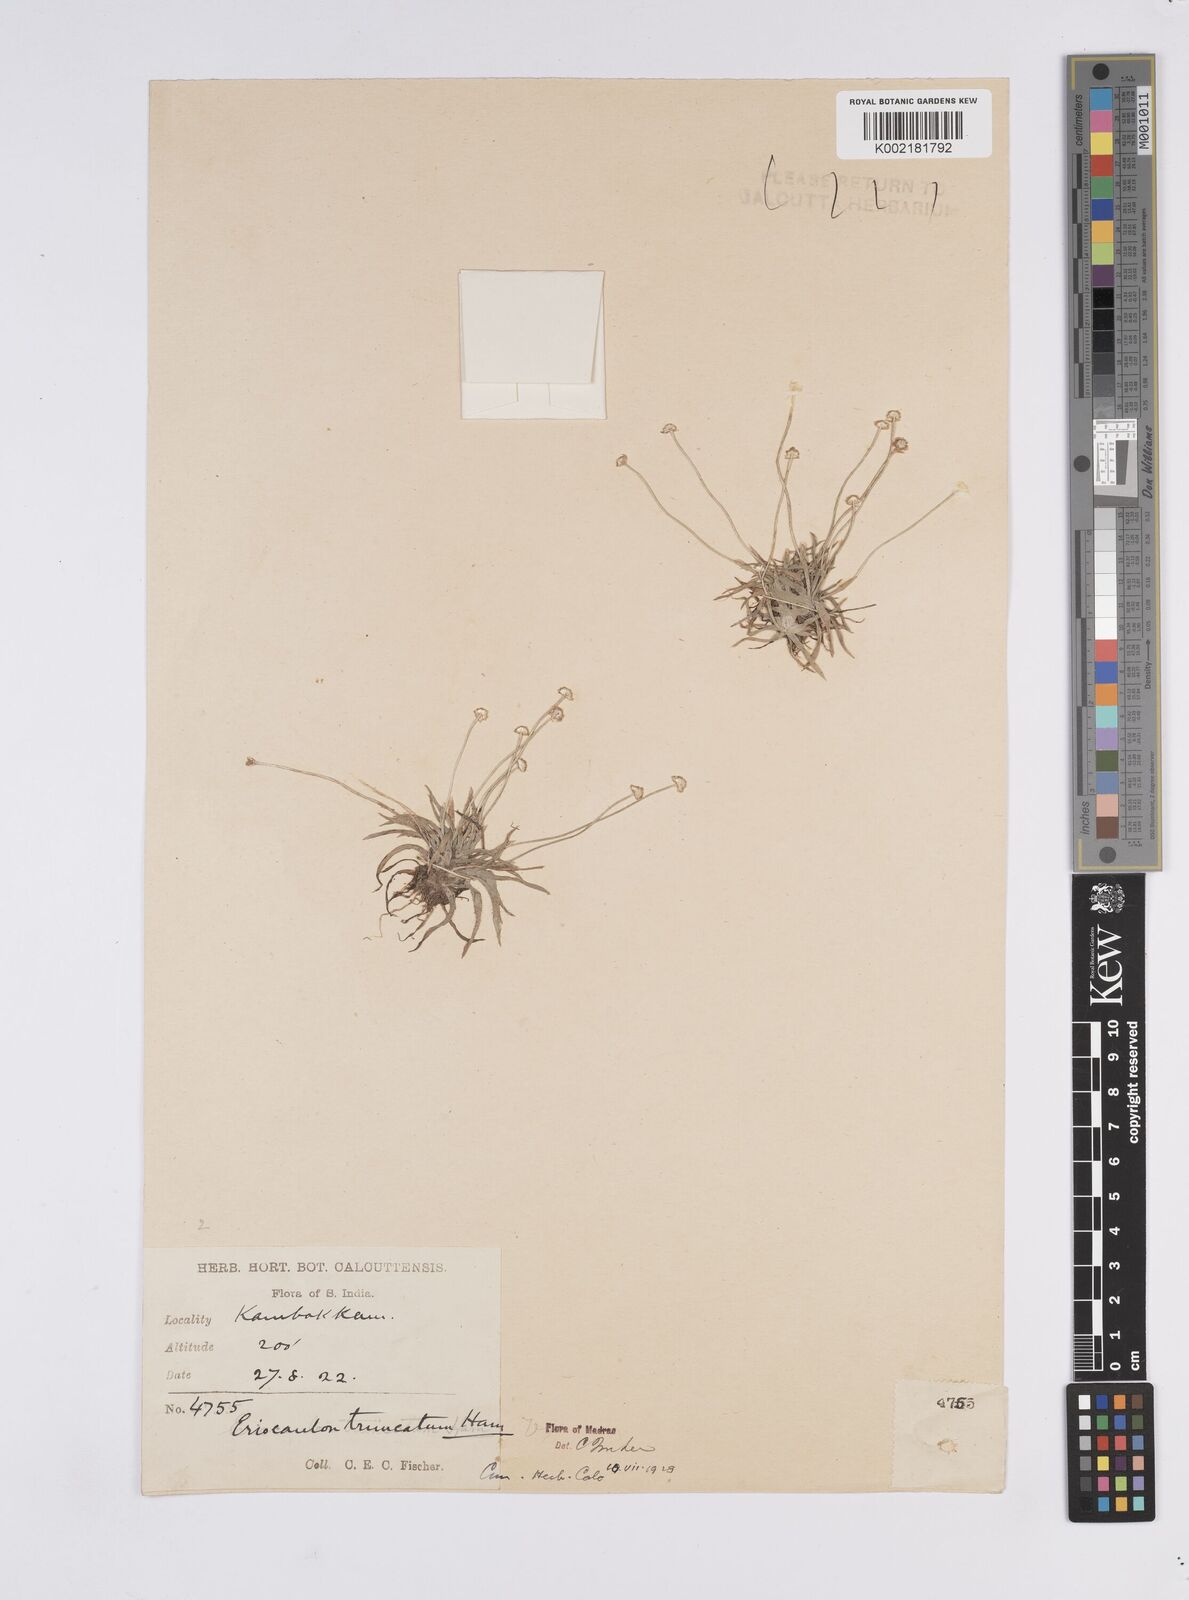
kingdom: Plantae
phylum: Tracheophyta
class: Liliopsida
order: Poales
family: Eriocaulaceae
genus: Eriocaulon
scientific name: Eriocaulon truncatum
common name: Short pipe-wort
